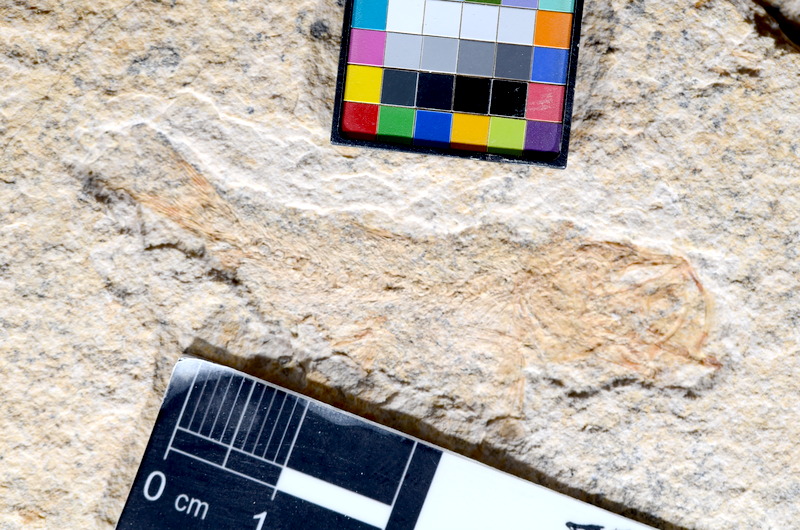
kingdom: Animalia
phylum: Chordata
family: Ascalaboidae
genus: Tharsis
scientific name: Tharsis dubius
